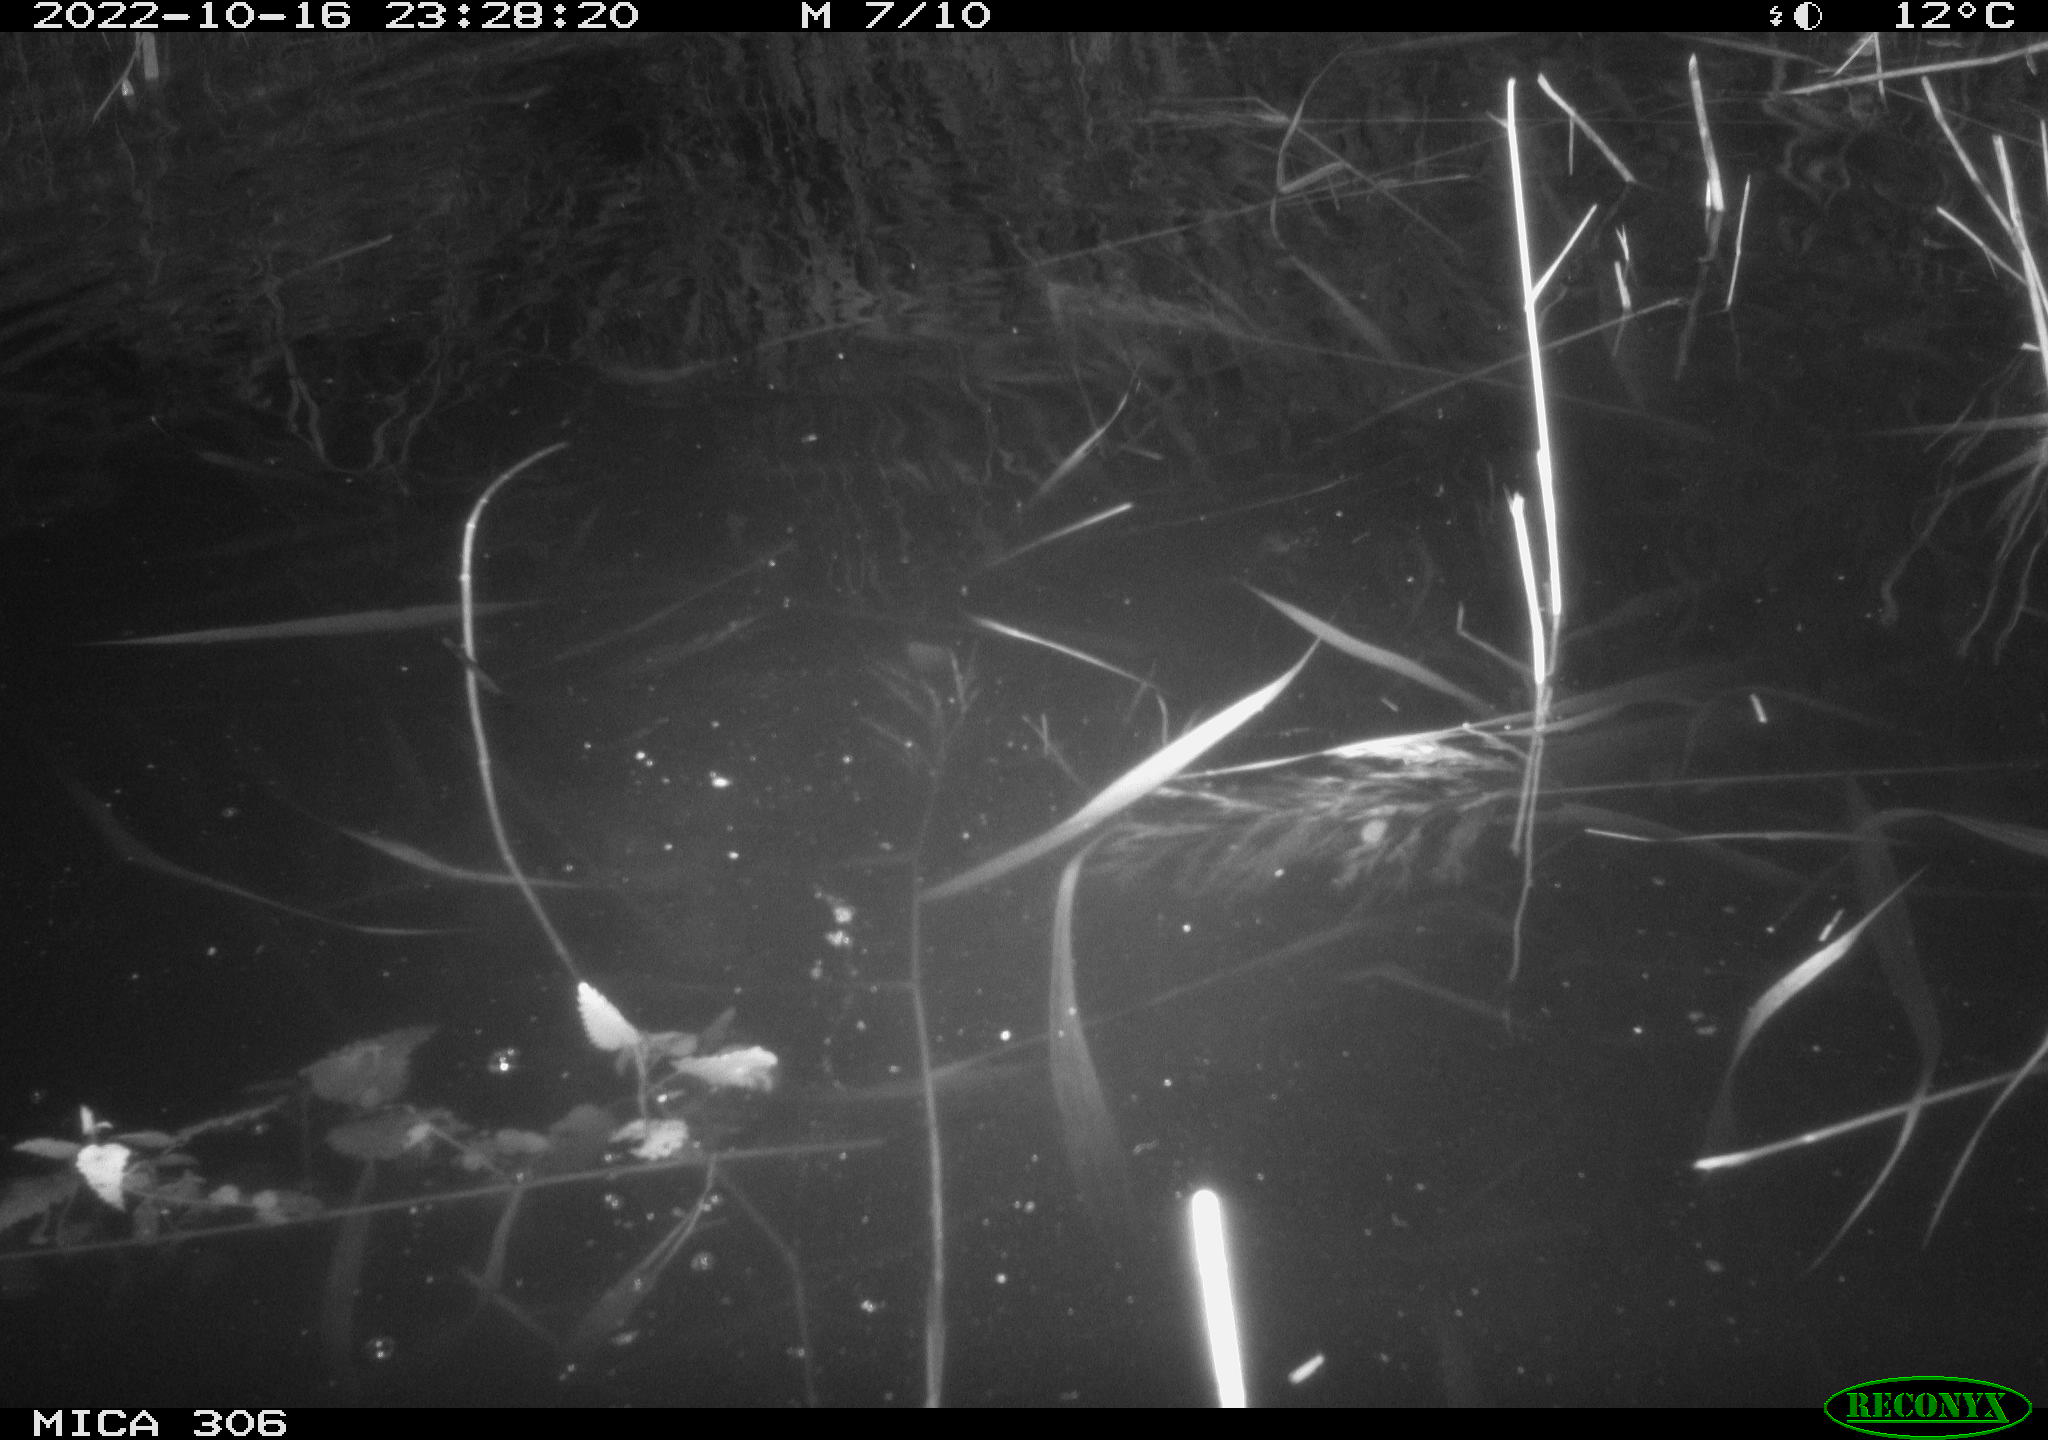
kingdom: Animalia
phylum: Chordata
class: Mammalia
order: Rodentia
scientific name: Rodentia
